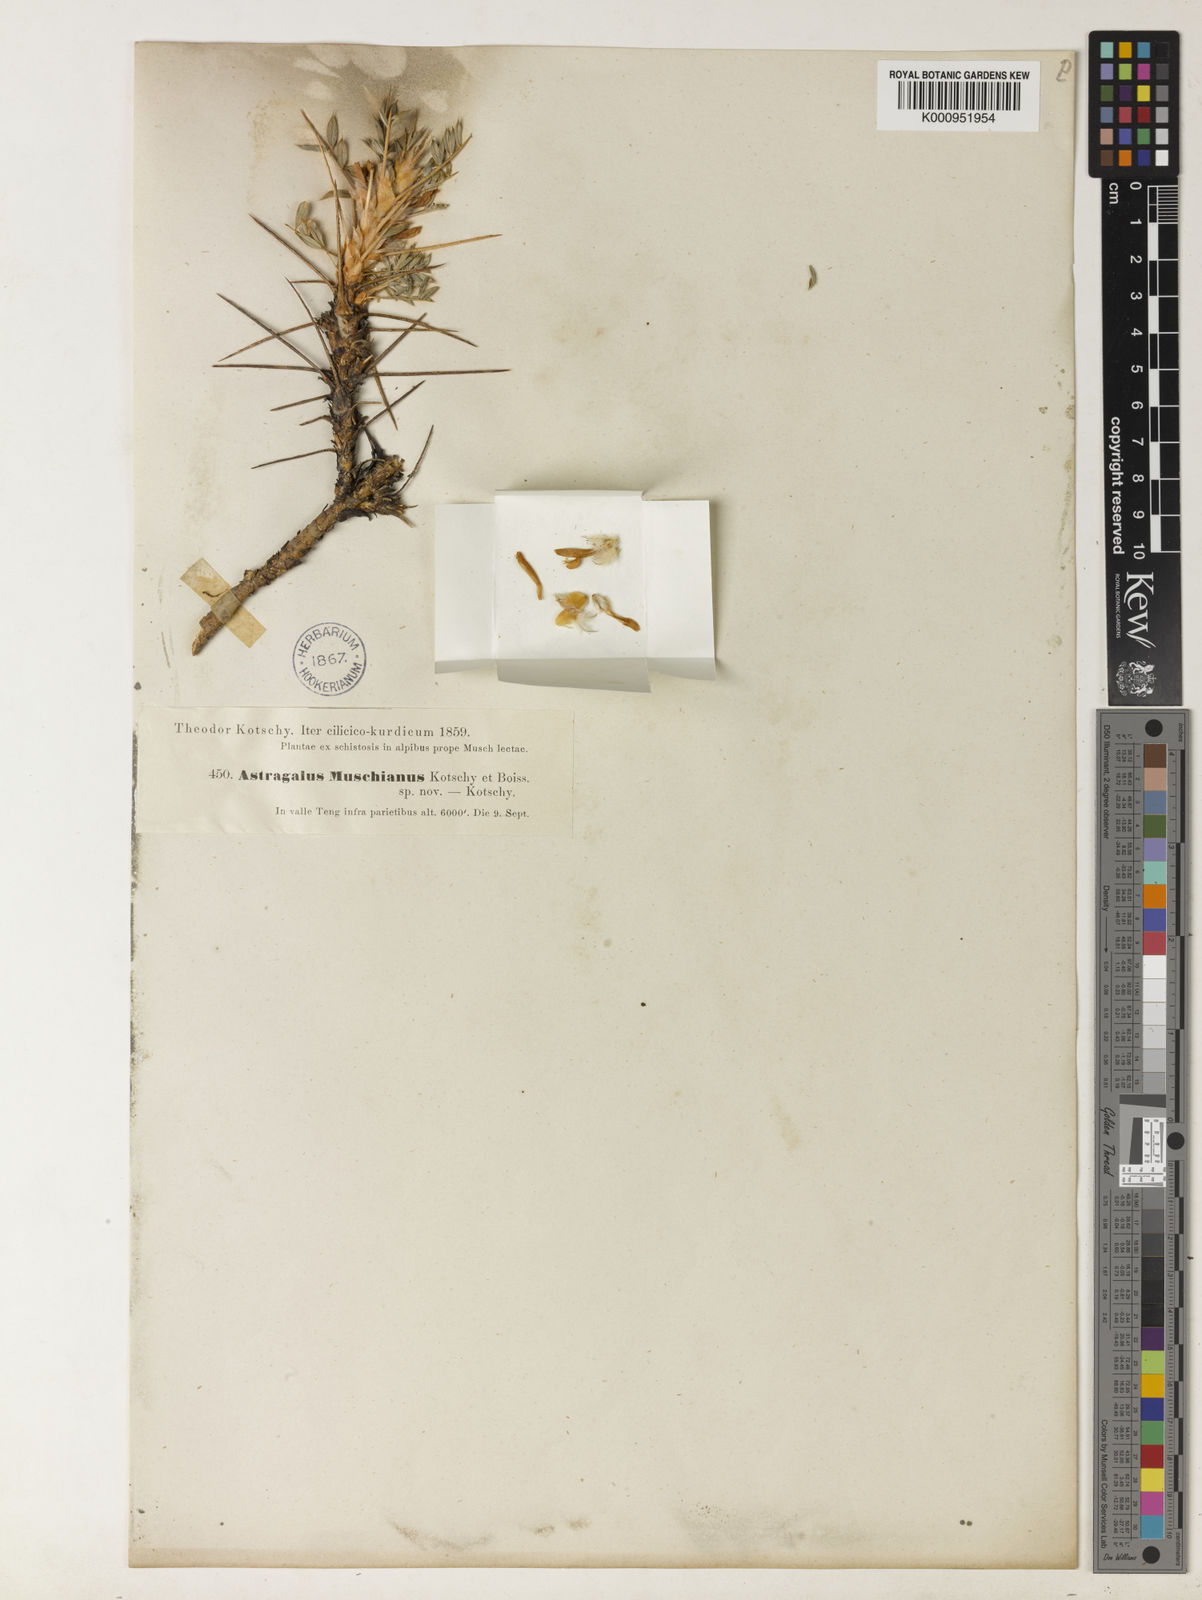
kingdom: Plantae
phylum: Tracheophyta
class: Magnoliopsida
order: Fabales
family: Fabaceae
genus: Astragalus
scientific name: Astragalus muschianus
